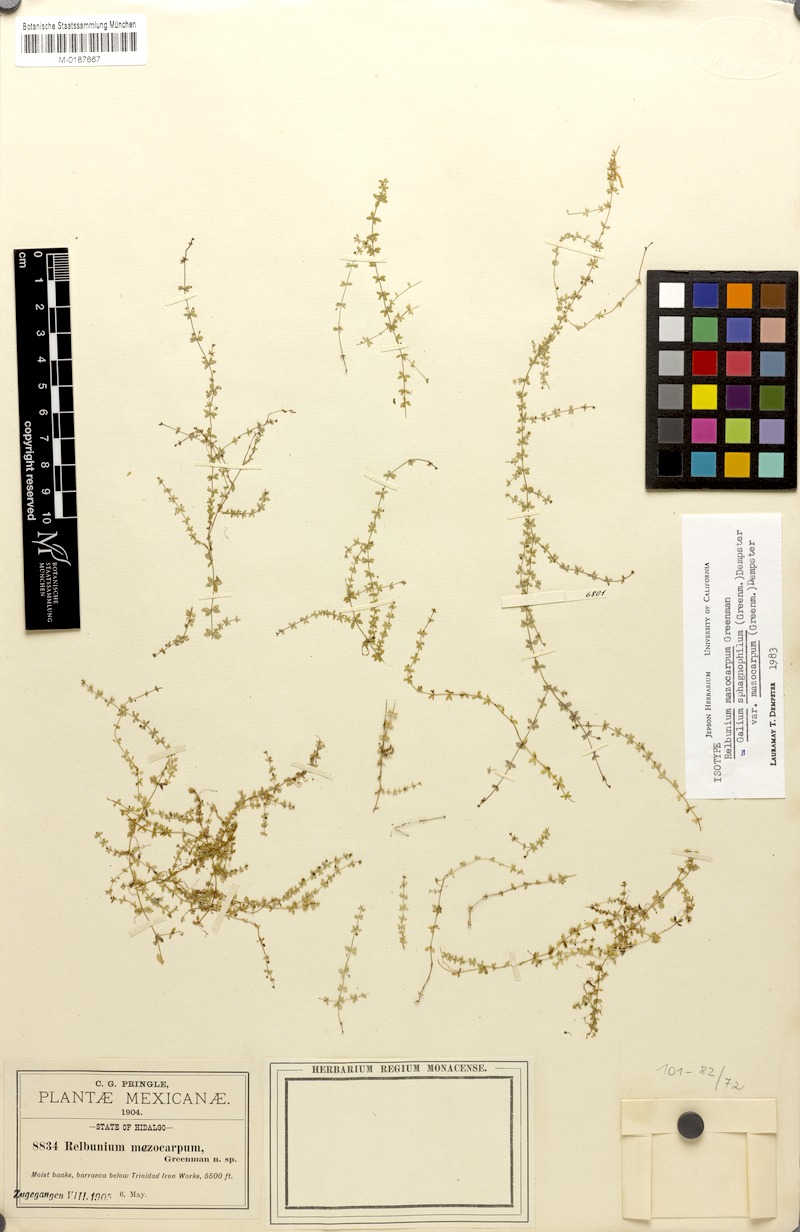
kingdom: Plantae
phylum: Tracheophyta
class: Magnoliopsida
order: Gentianales
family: Rubiaceae
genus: Galium
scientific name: Galium sphagnophilum
